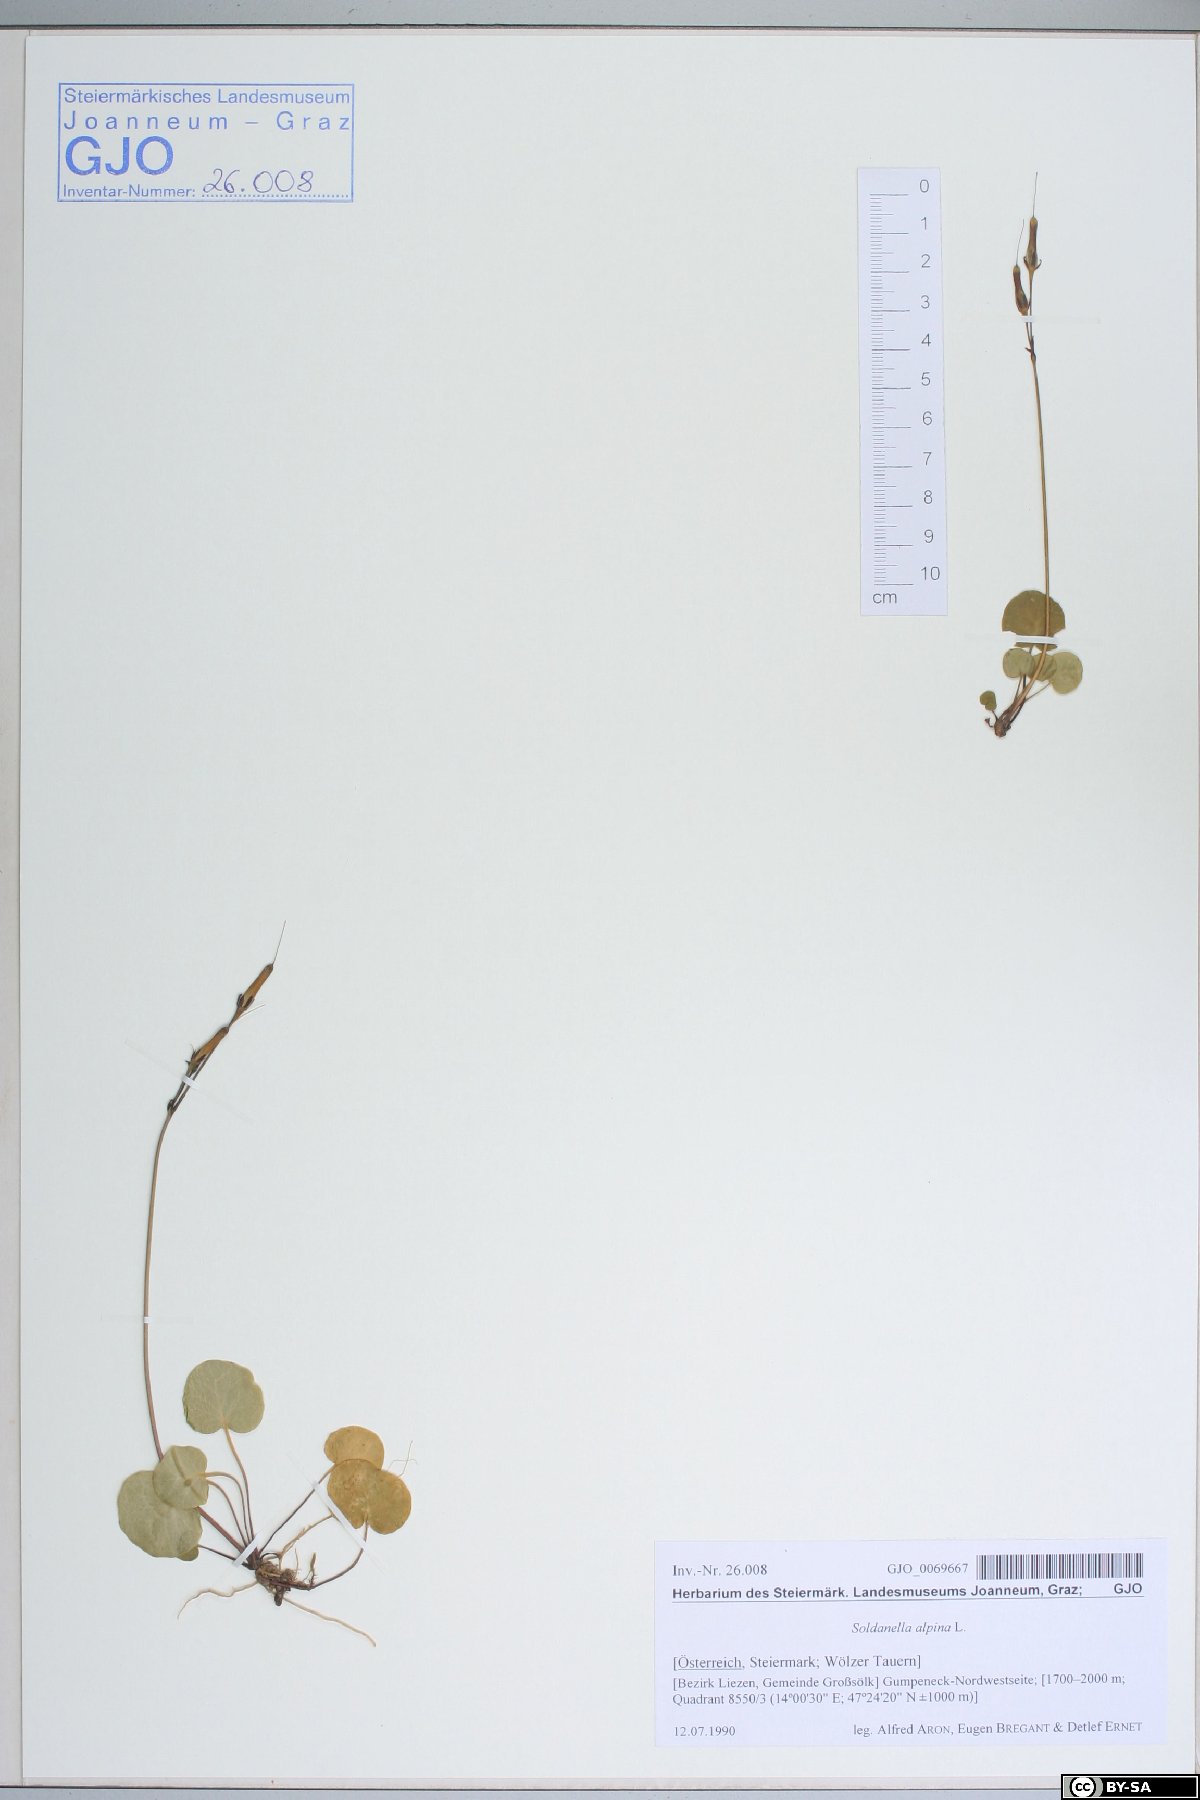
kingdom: Plantae
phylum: Tracheophyta
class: Magnoliopsida
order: Ericales
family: Primulaceae
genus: Soldanella
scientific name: Soldanella alpina
